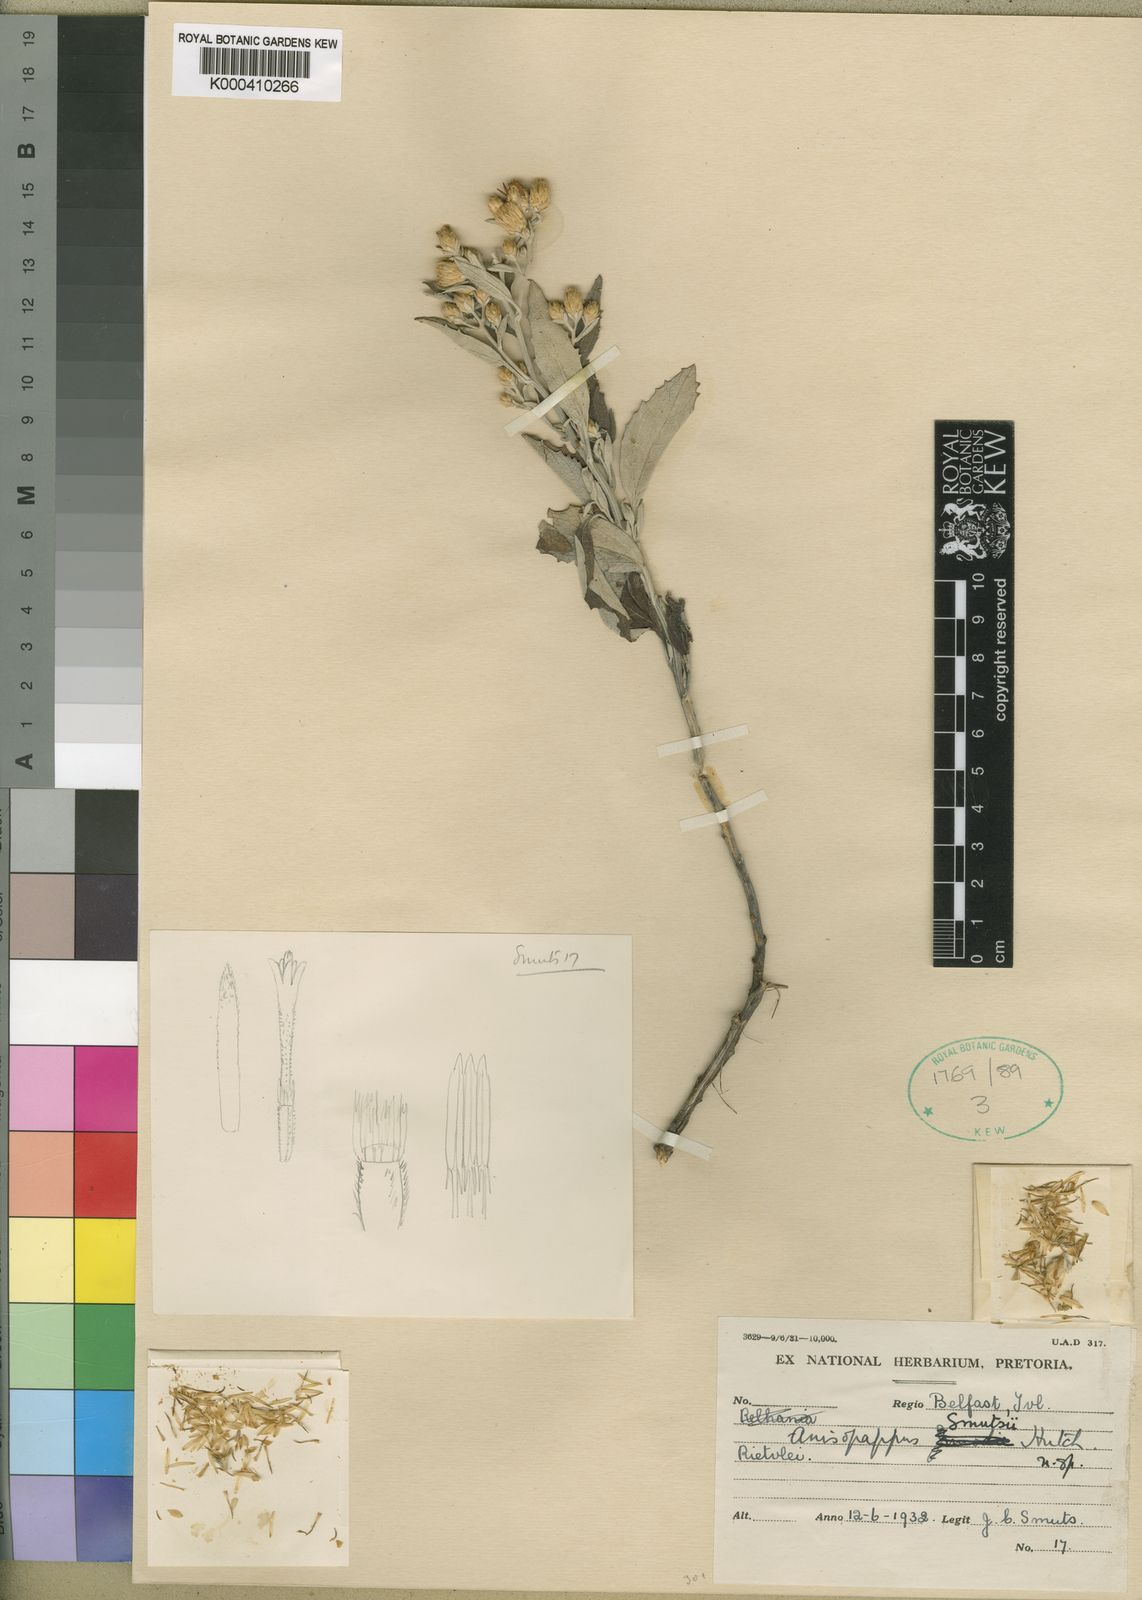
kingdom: Plantae
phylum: Tracheophyta
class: Magnoliopsida
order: Asterales
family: Asteraceae
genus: Anisopappus
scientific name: Anisopappus smutsii
